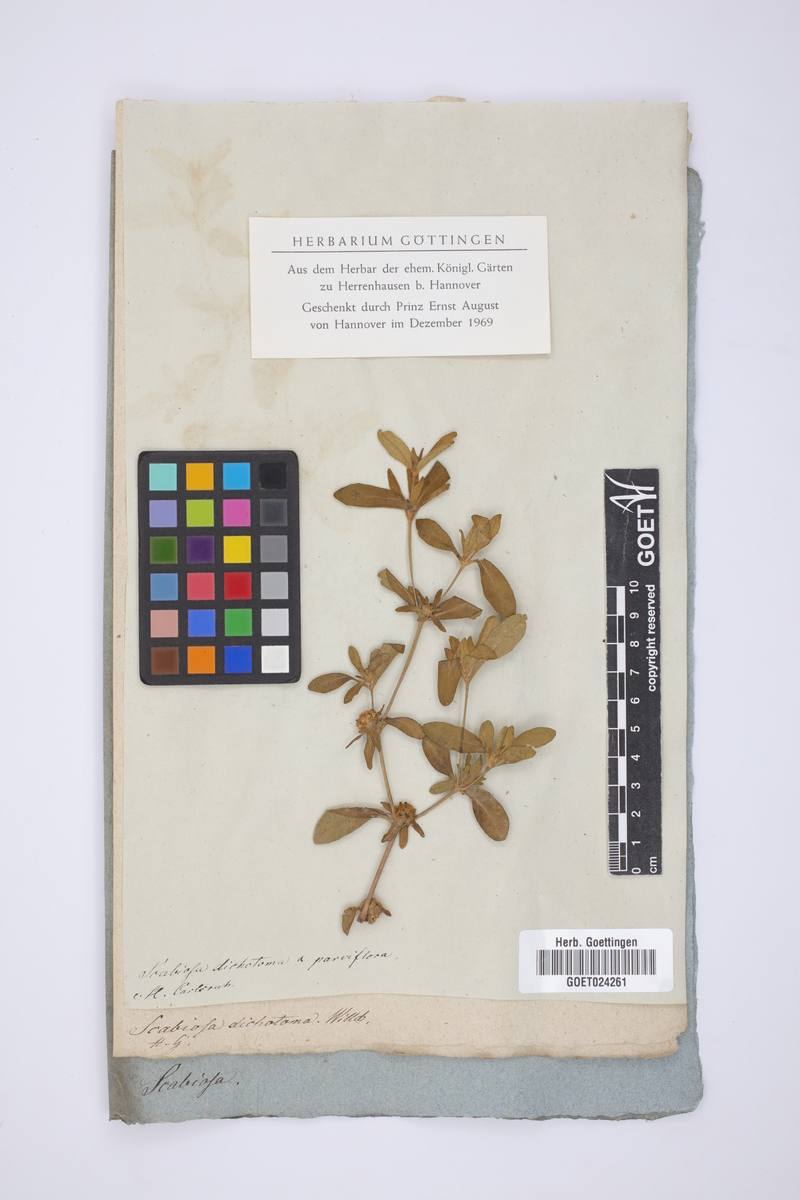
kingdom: Plantae
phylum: Tracheophyta
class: Magnoliopsida
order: Dipsacales
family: Caprifoliaceae
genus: Cephalaria
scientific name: Cephalaria syriaca
